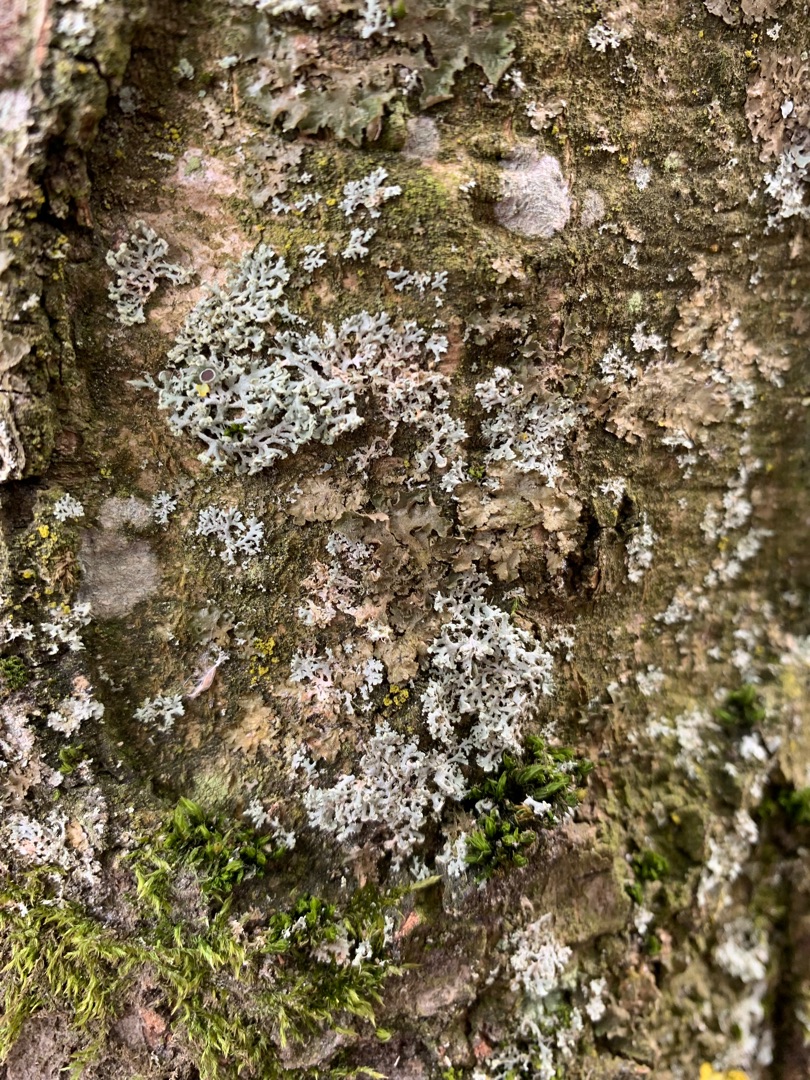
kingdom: Fungi
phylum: Ascomycota
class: Lecanoromycetes
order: Caliciales
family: Physciaceae
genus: Physcia
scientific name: Physcia tenella
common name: Spæd rosetlav
